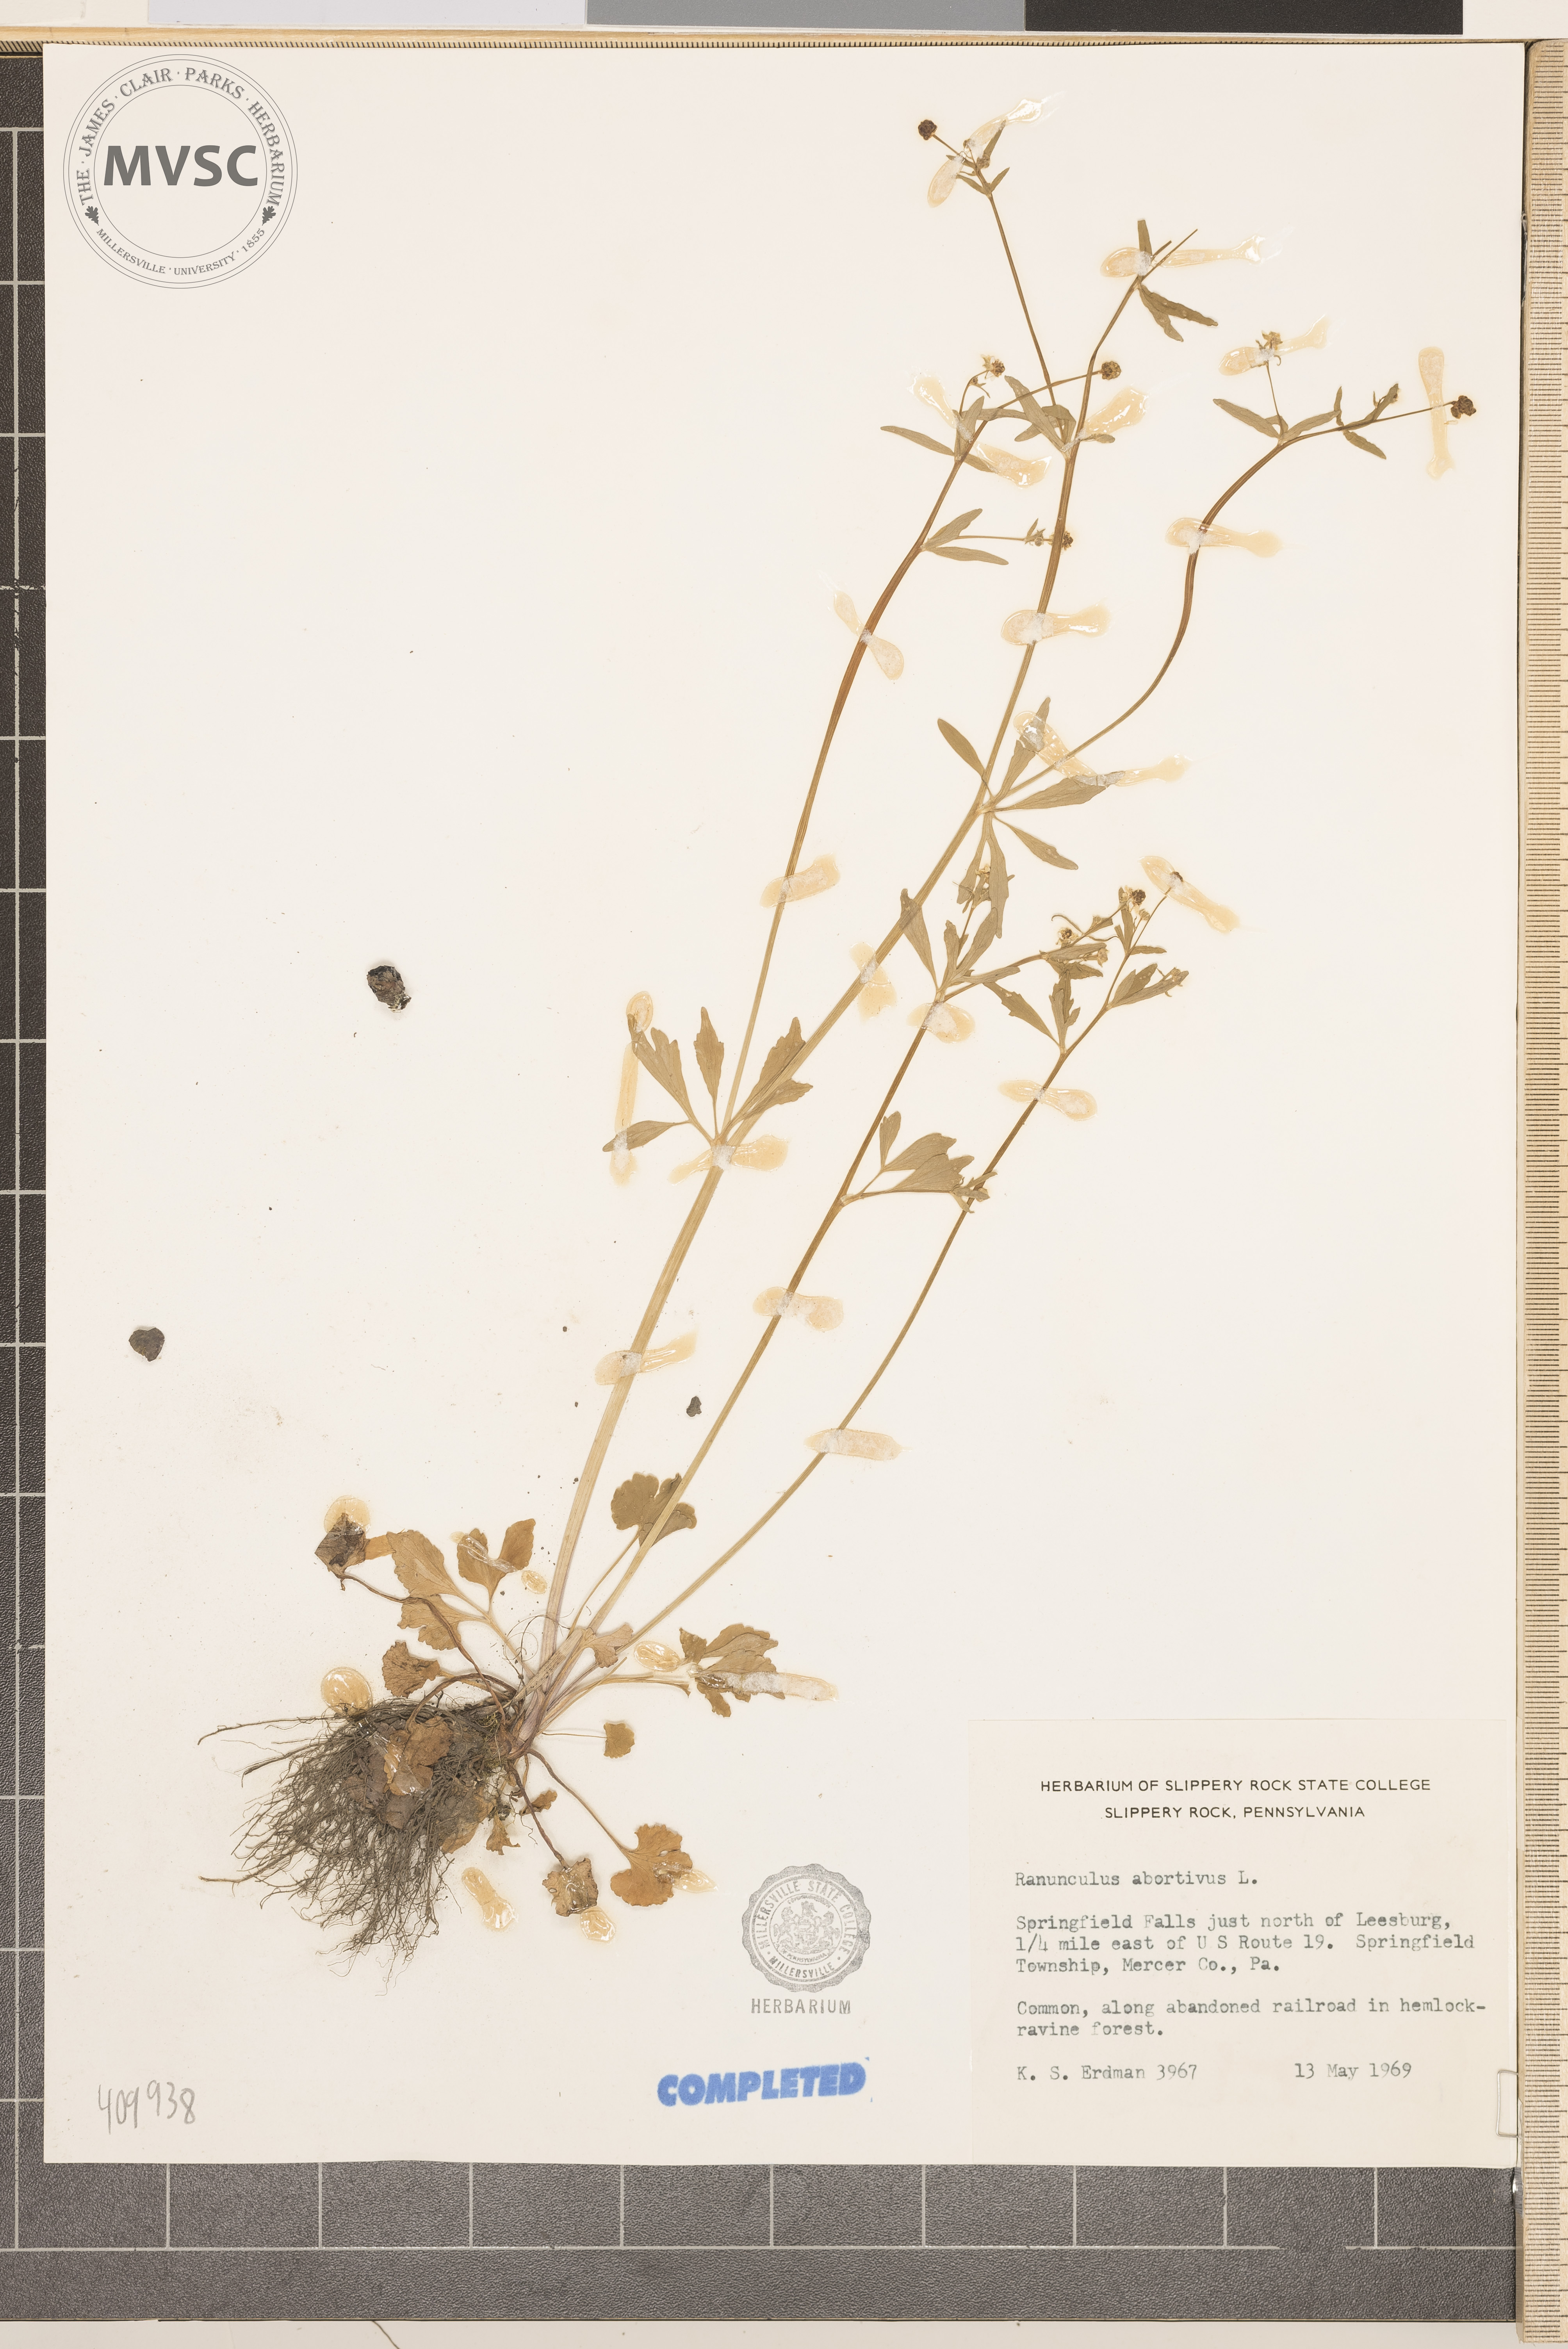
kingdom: Plantae
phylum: Tracheophyta
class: Magnoliopsida
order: Ranunculales
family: Ranunculaceae
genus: Ranunculus
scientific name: Ranunculus abortivus
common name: Early wood buttercup
